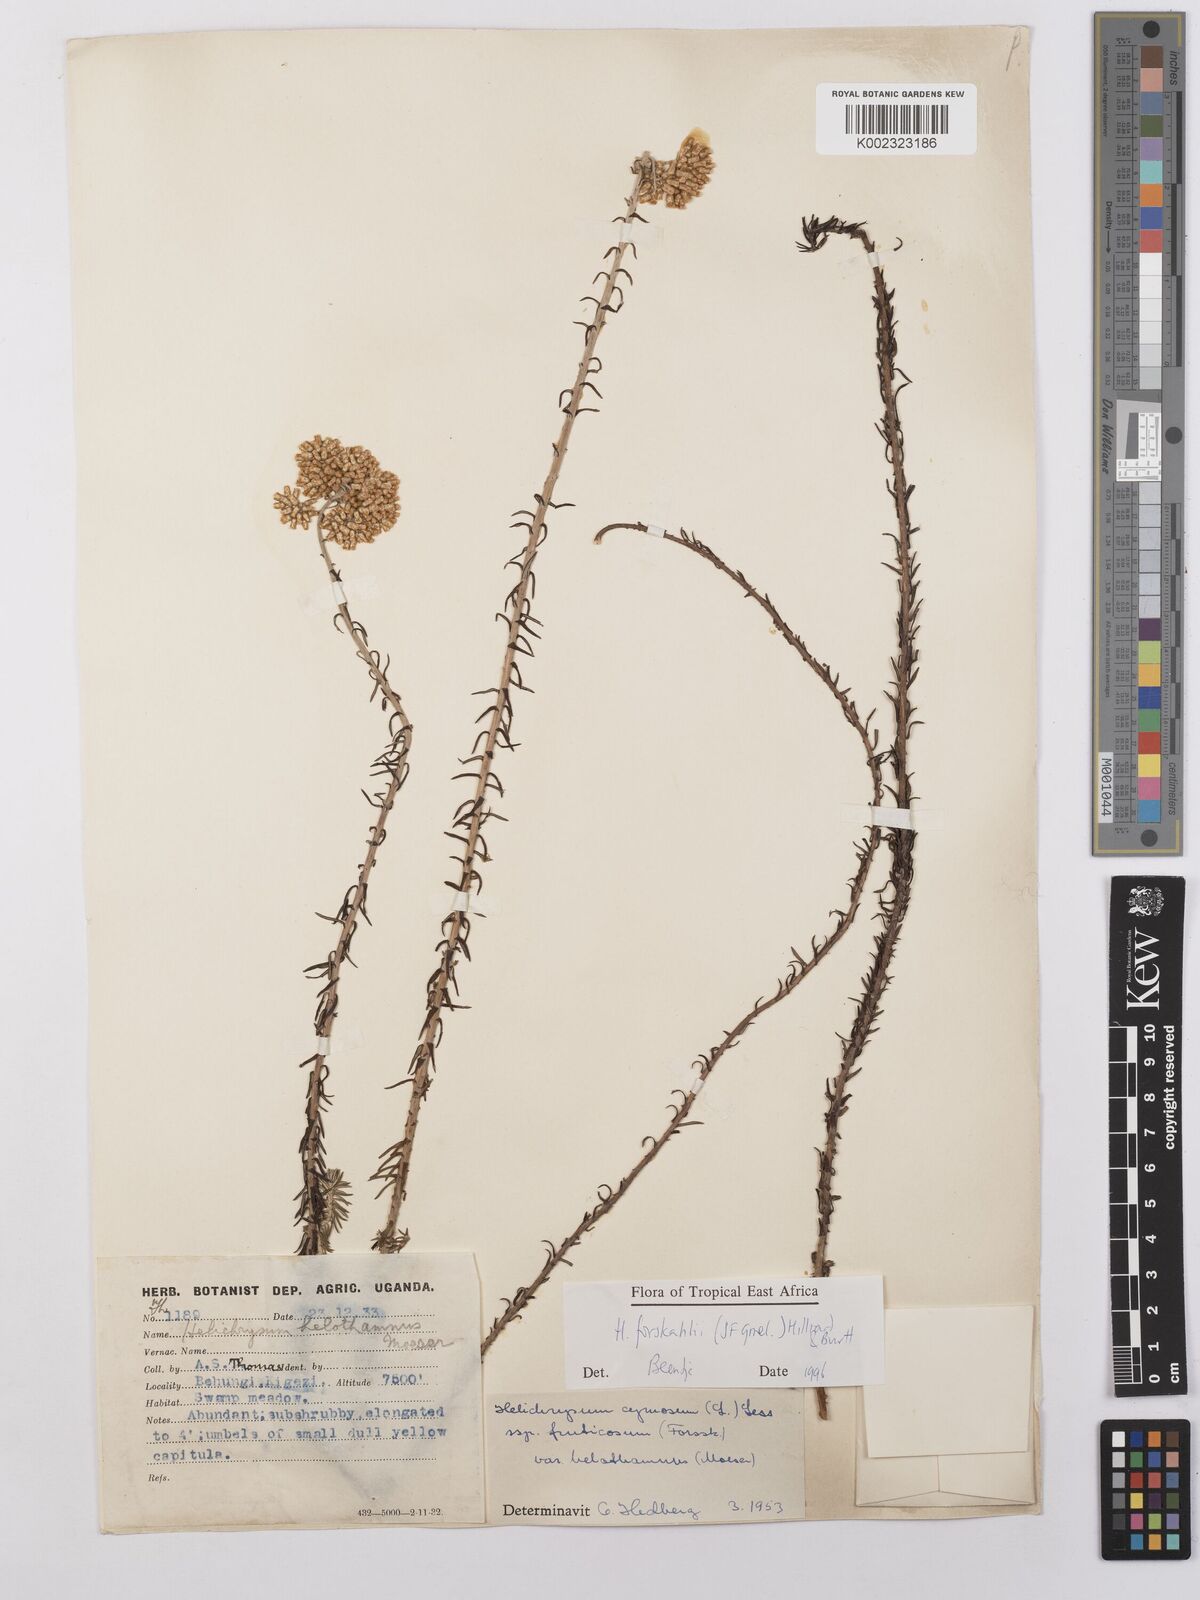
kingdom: Plantae
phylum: Tracheophyta
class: Magnoliopsida
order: Asterales
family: Asteraceae
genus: Helichrysum
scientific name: Helichrysum forskahlii
